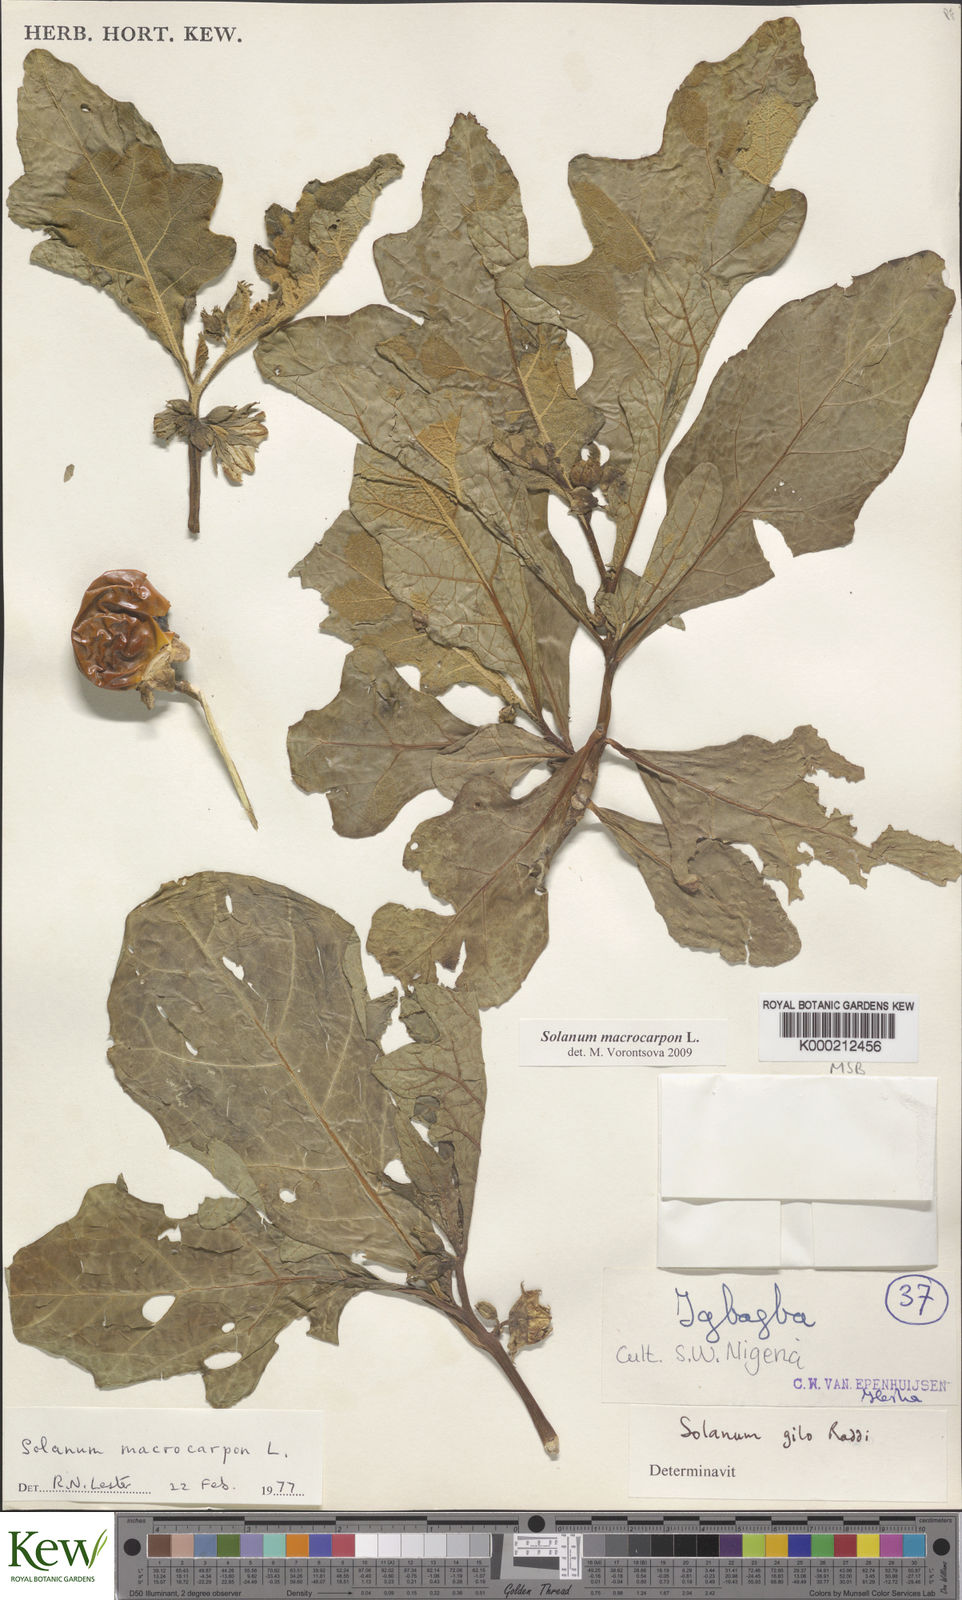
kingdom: Plantae
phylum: Tracheophyta
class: Magnoliopsida
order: Solanales
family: Solanaceae
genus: Solanum
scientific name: Solanum macrocarpon
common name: African eggplant
